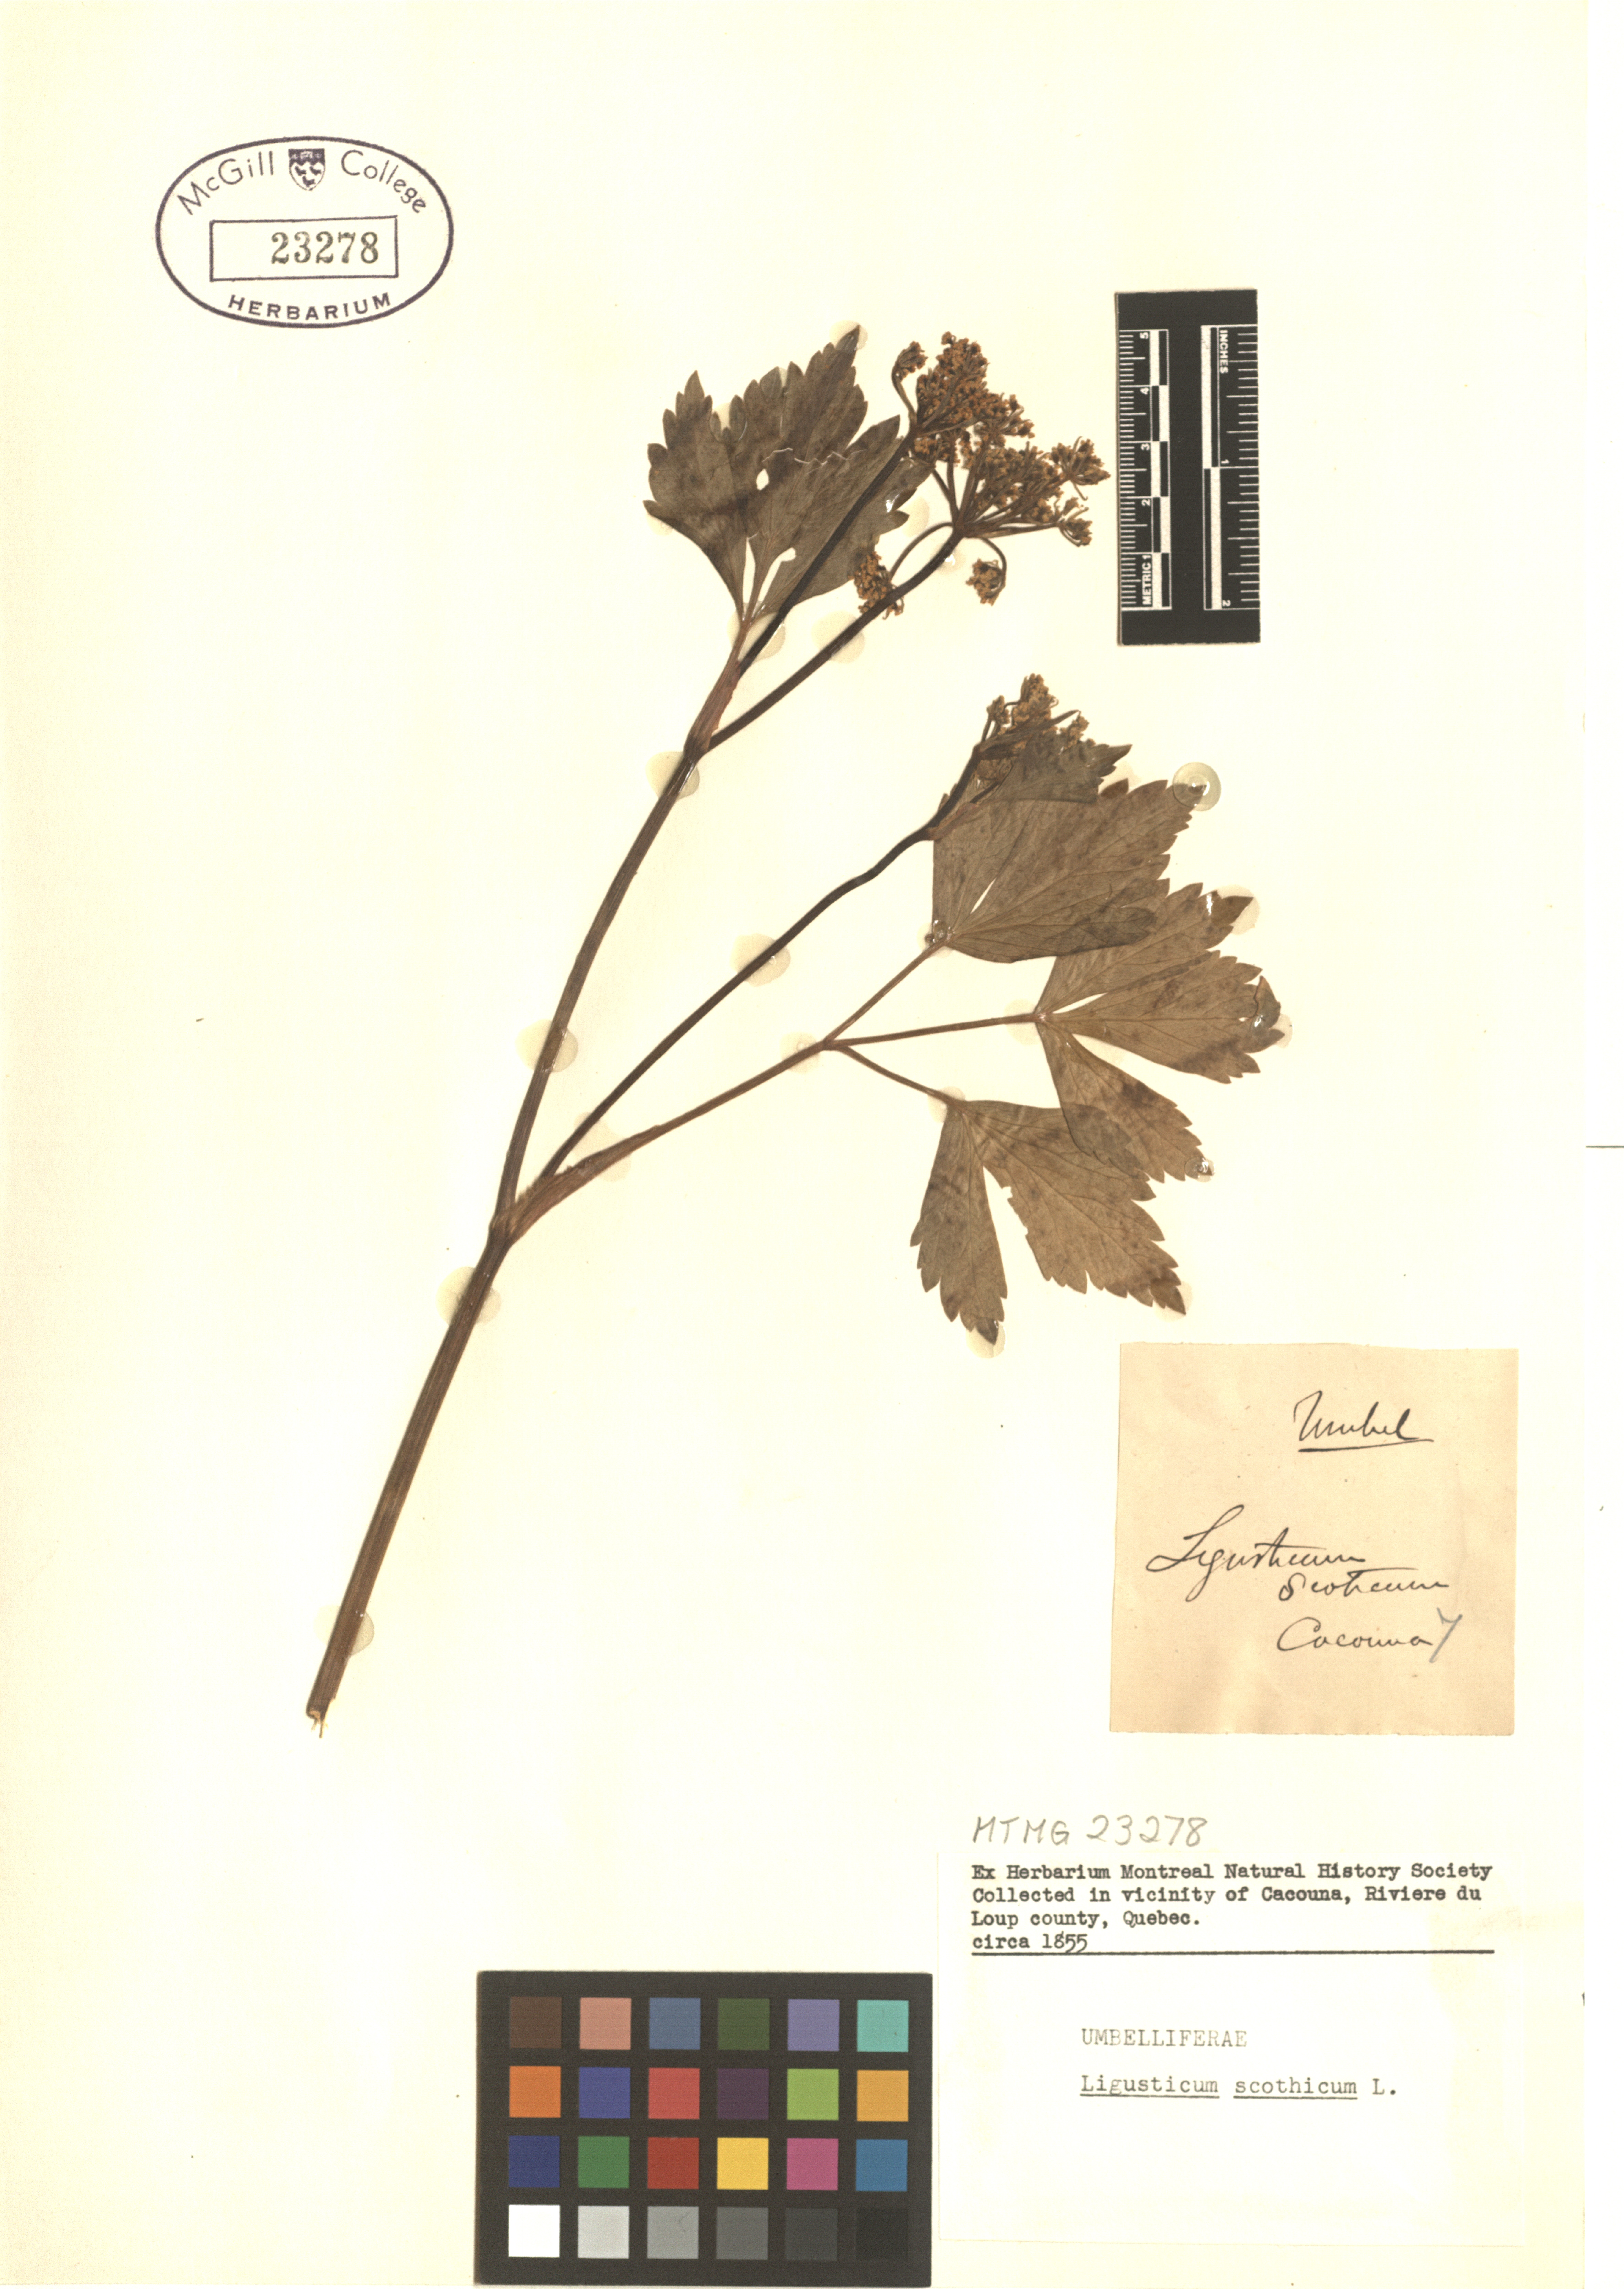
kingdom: Plantae
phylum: Tracheophyta
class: Magnoliopsida
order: Apiales
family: Apiaceae
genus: Ligusticum
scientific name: Ligusticum scoticum
